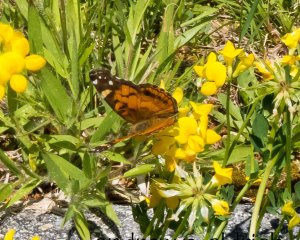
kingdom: Animalia
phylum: Arthropoda
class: Insecta
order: Lepidoptera
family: Nymphalidae
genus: Vanessa
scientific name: Vanessa virginiensis
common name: American Lady
